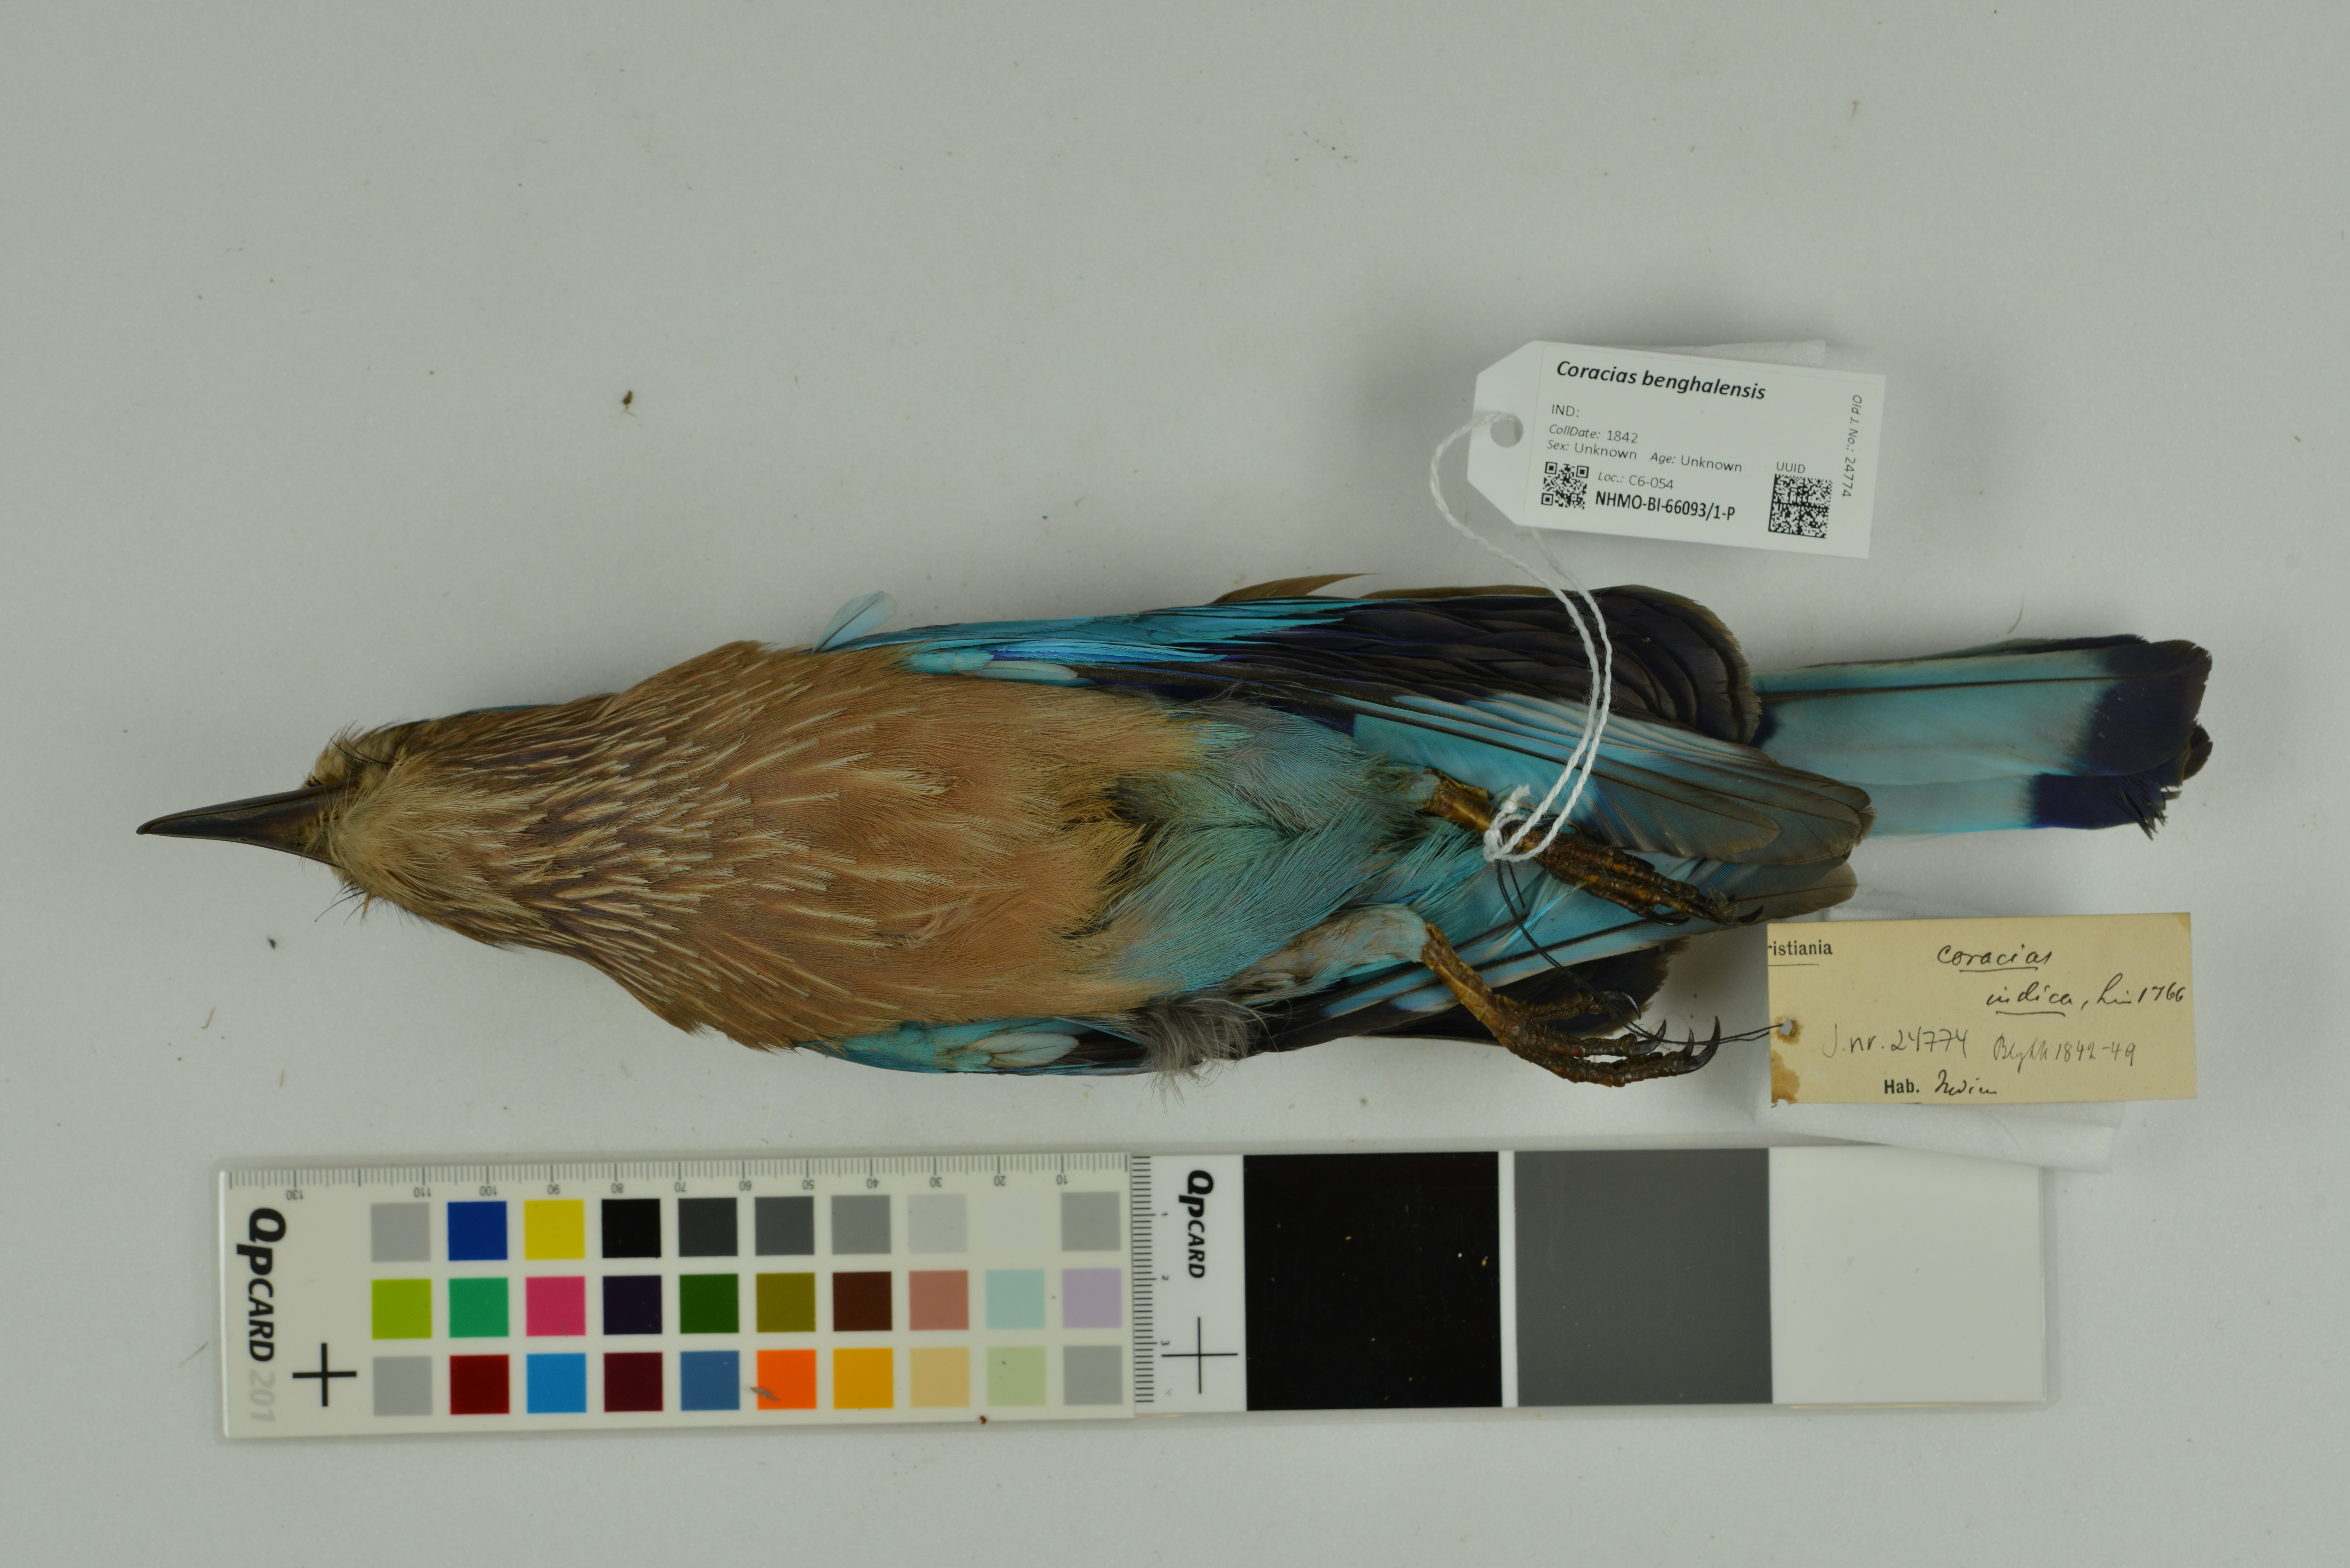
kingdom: Animalia
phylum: Chordata
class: Aves
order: Coraciiformes
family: Coraciidae
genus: Coracias
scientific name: Coracias benghalensis
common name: Indian roller
